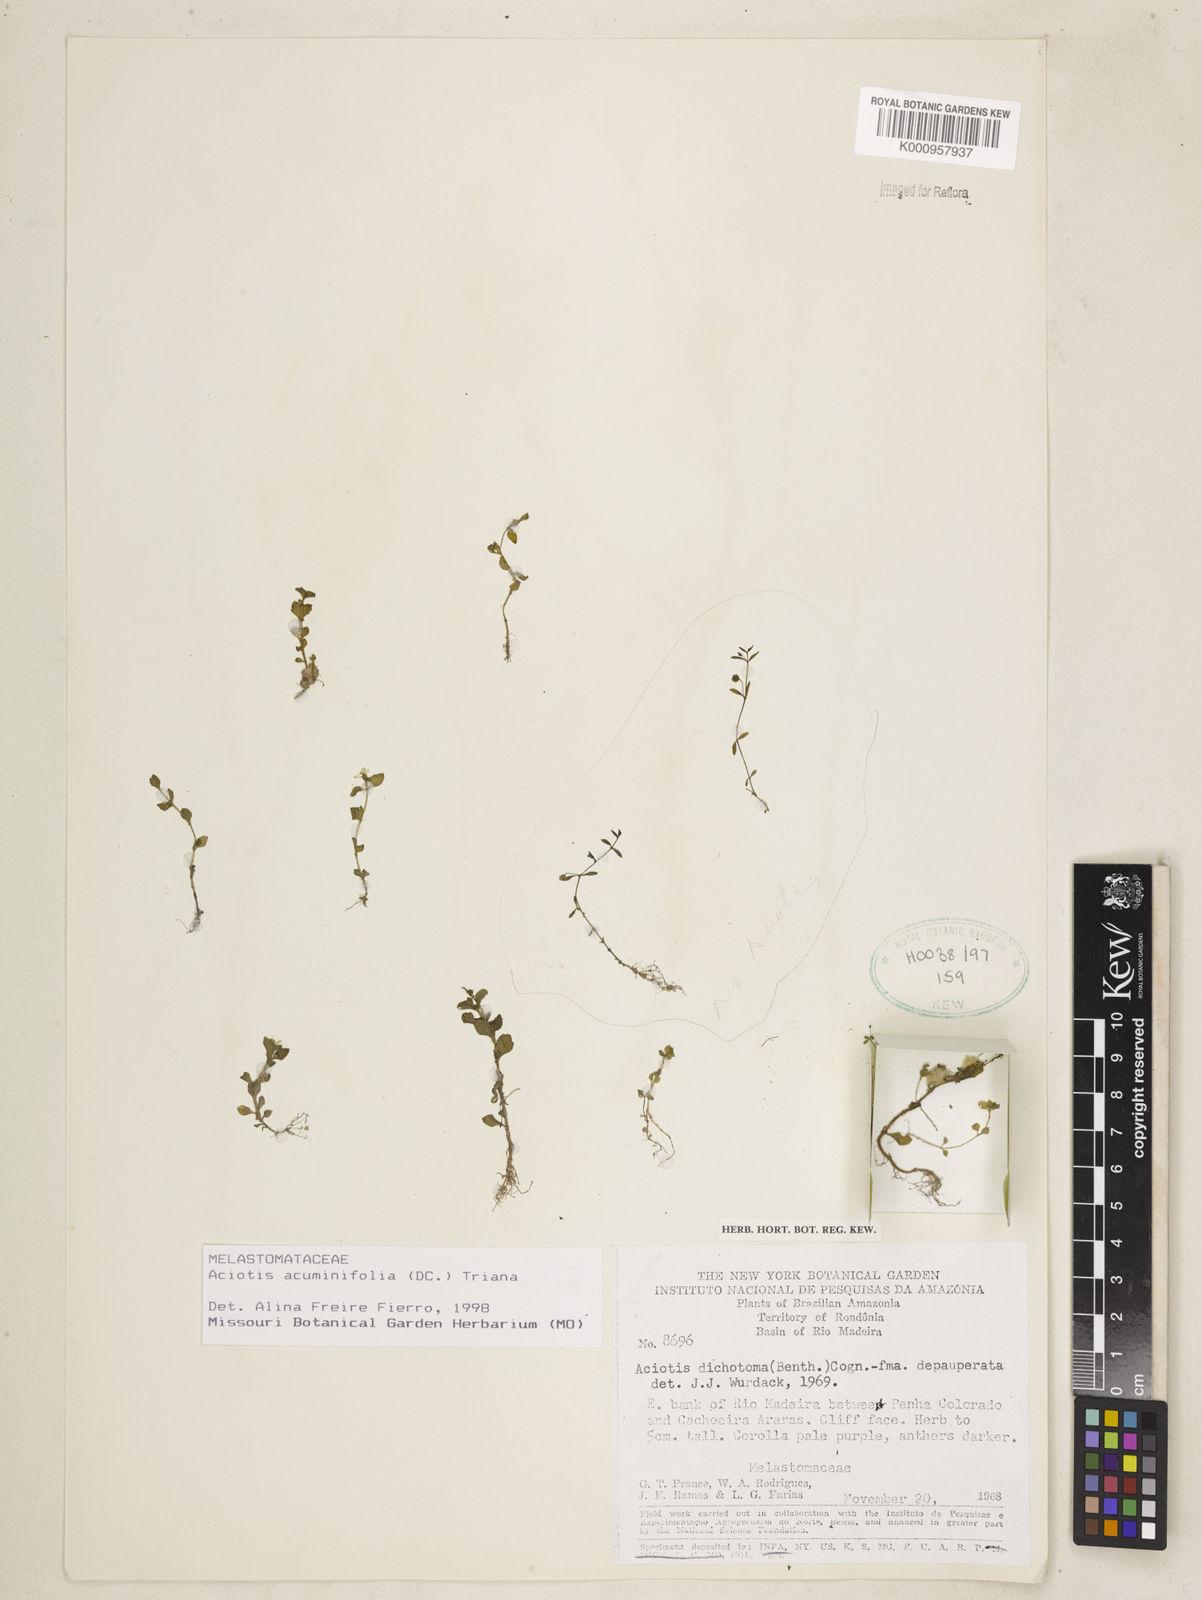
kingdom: Plantae
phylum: Tracheophyta
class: Magnoliopsida
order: Myrtales
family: Melastomataceae
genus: Aciotis
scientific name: Aciotis acuminifolia
